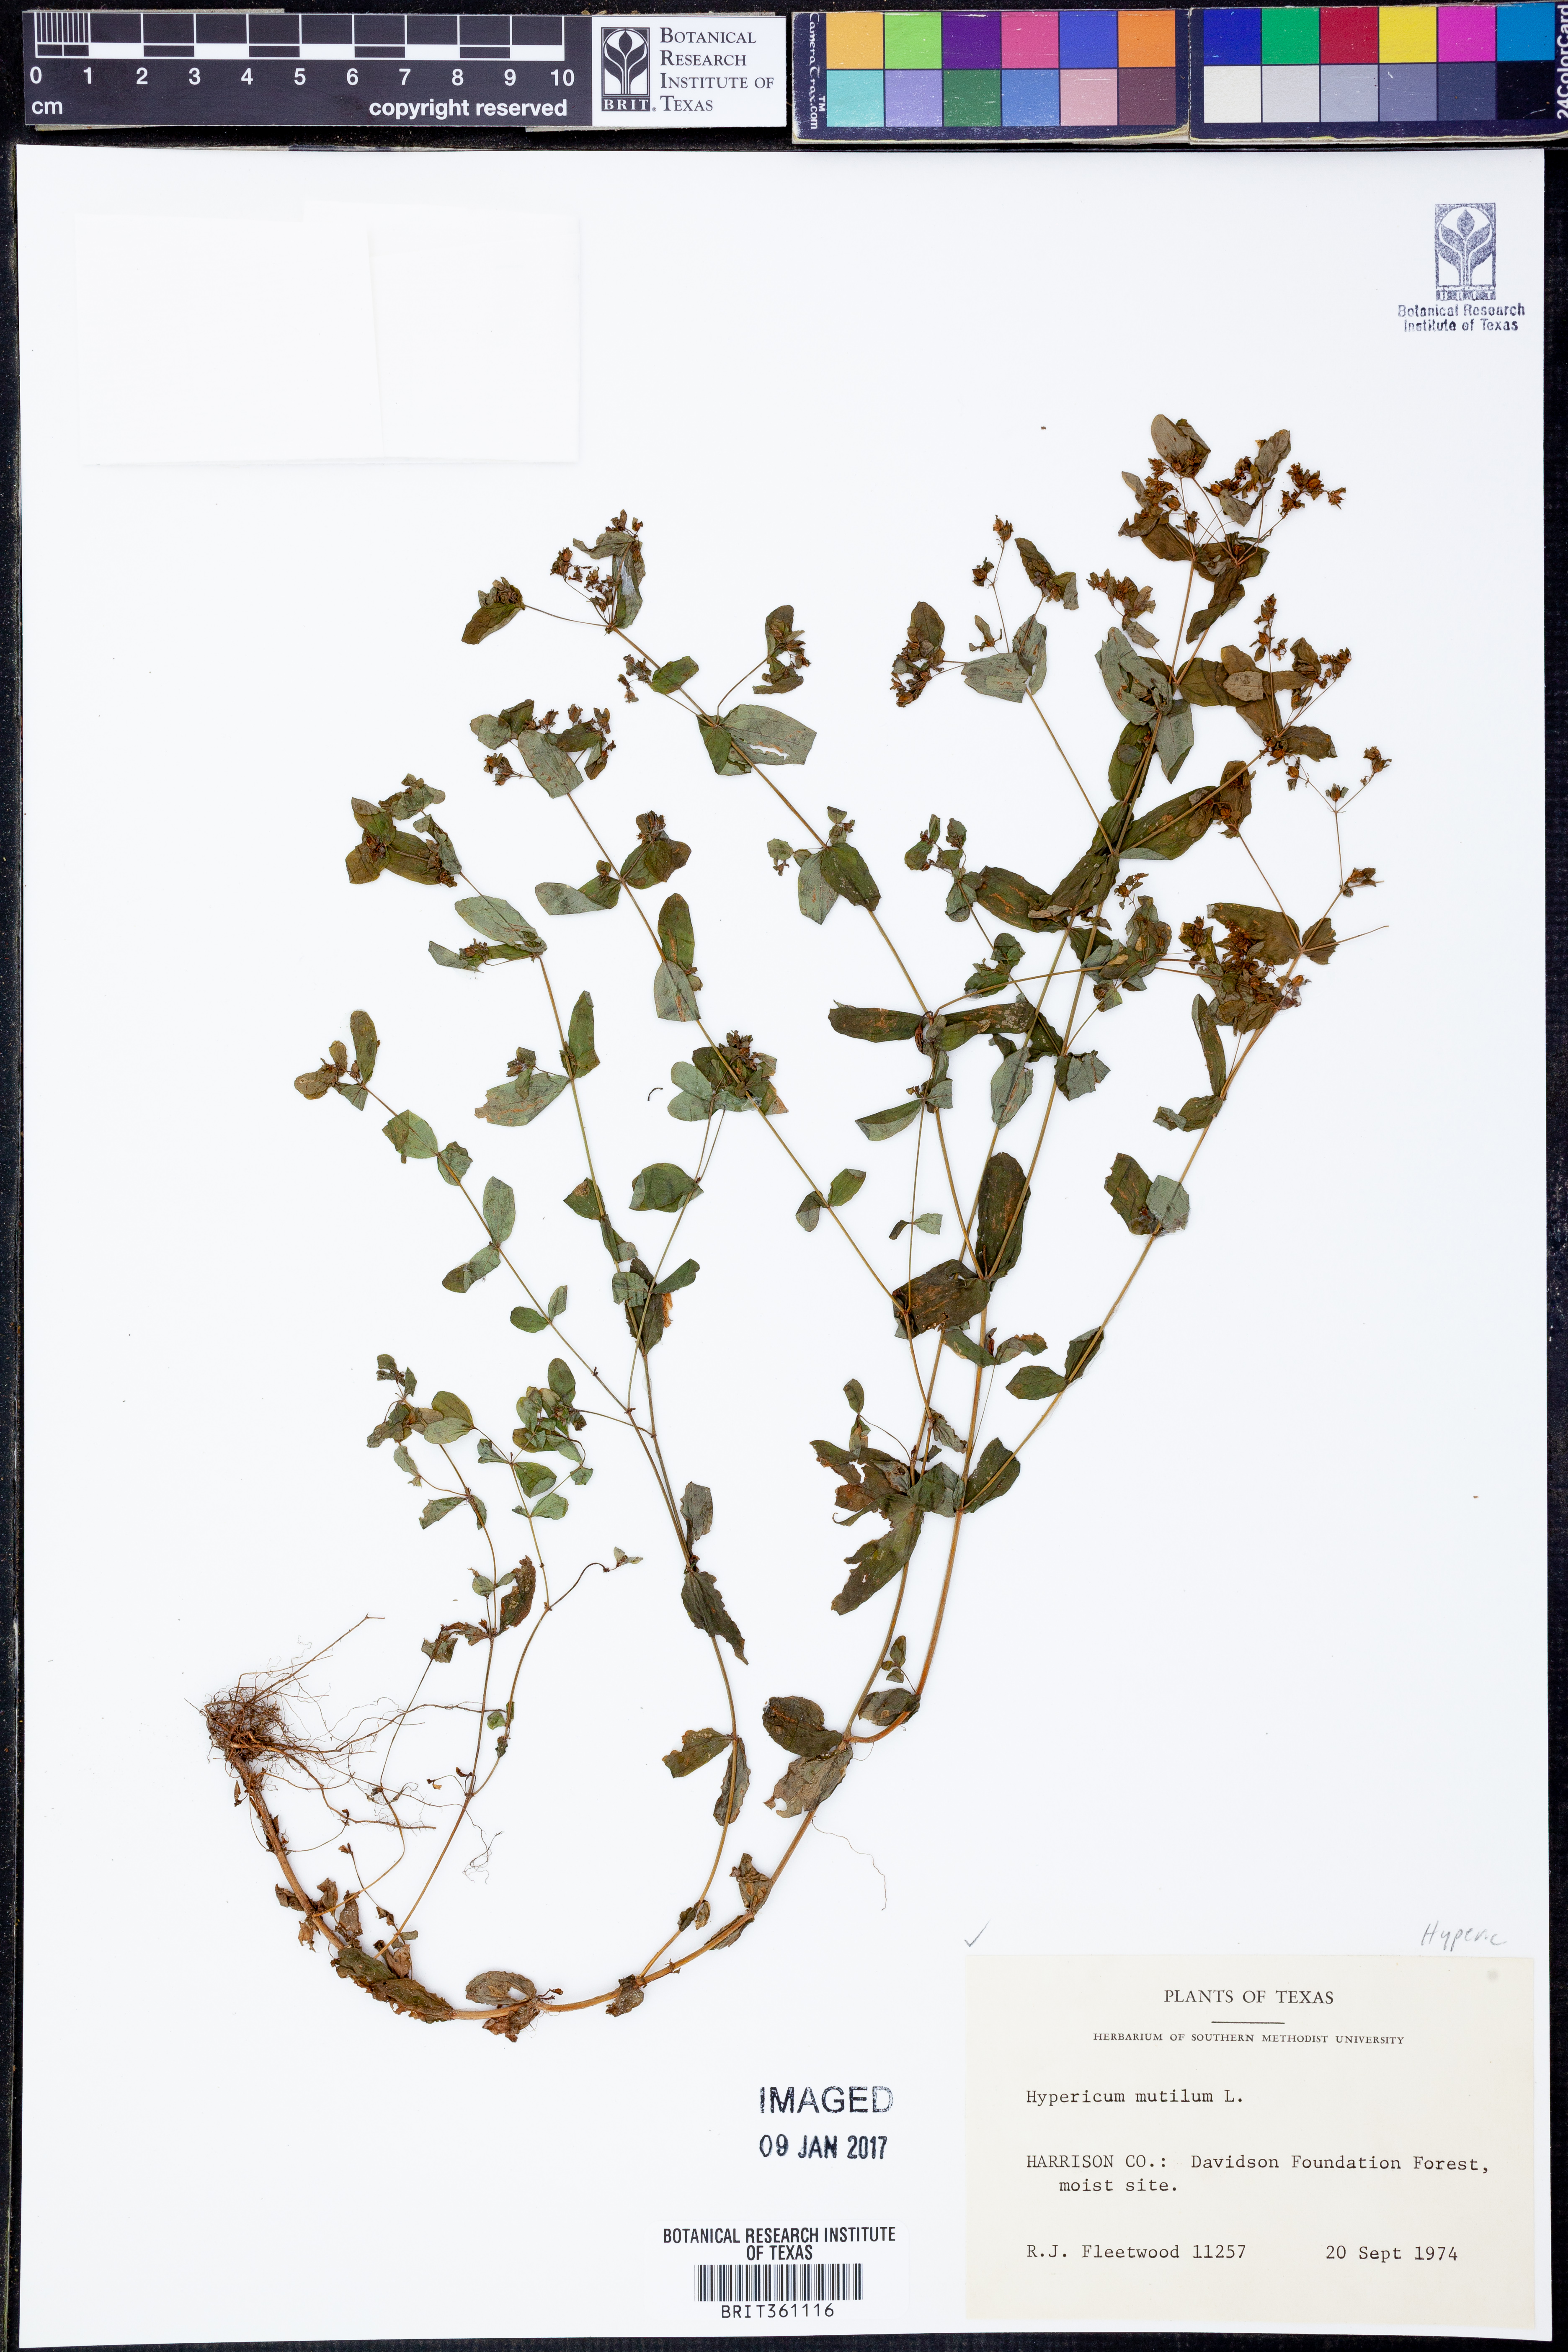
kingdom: Plantae
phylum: Tracheophyta
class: Magnoliopsida
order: Malpighiales
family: Hypericaceae
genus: Hypericum
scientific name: Hypericum mutilum
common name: Dwarf st. john's-wort
